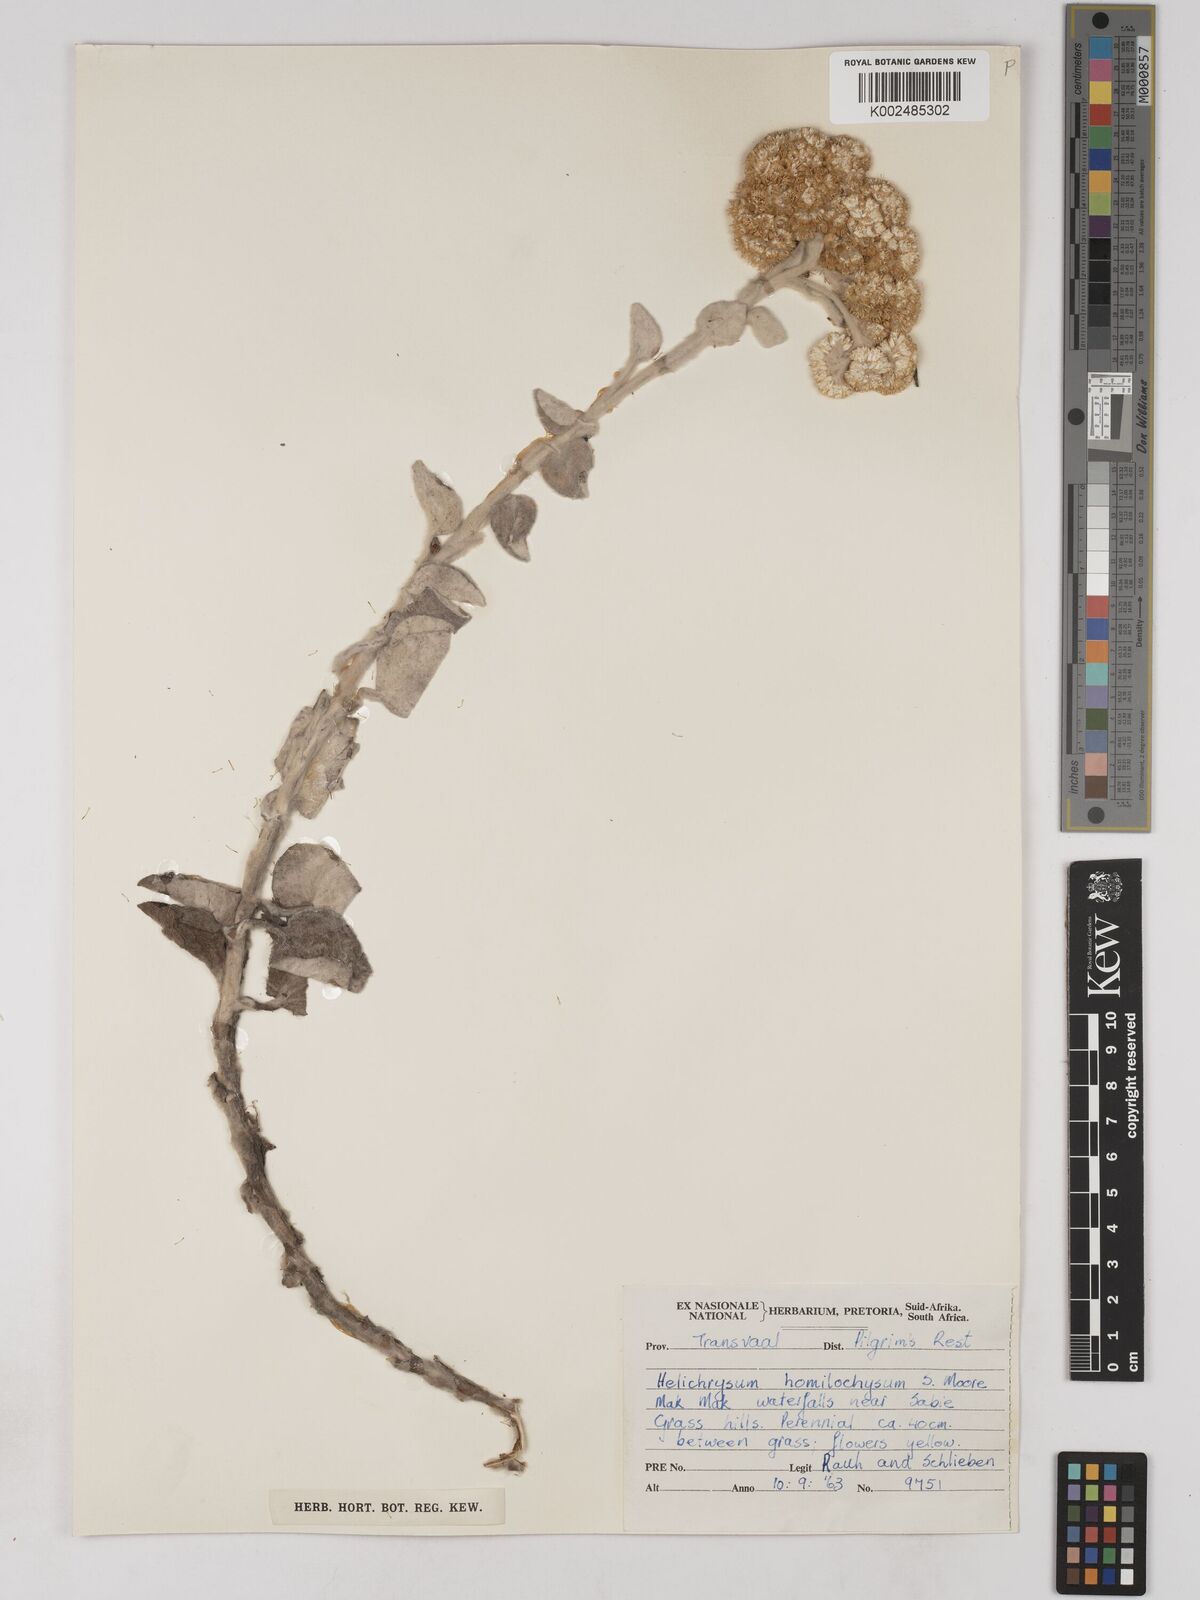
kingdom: Plantae
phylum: Tracheophyta
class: Magnoliopsida
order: Asterales
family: Asteraceae
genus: Helichrysum
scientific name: Helichrysum homilochrysum
